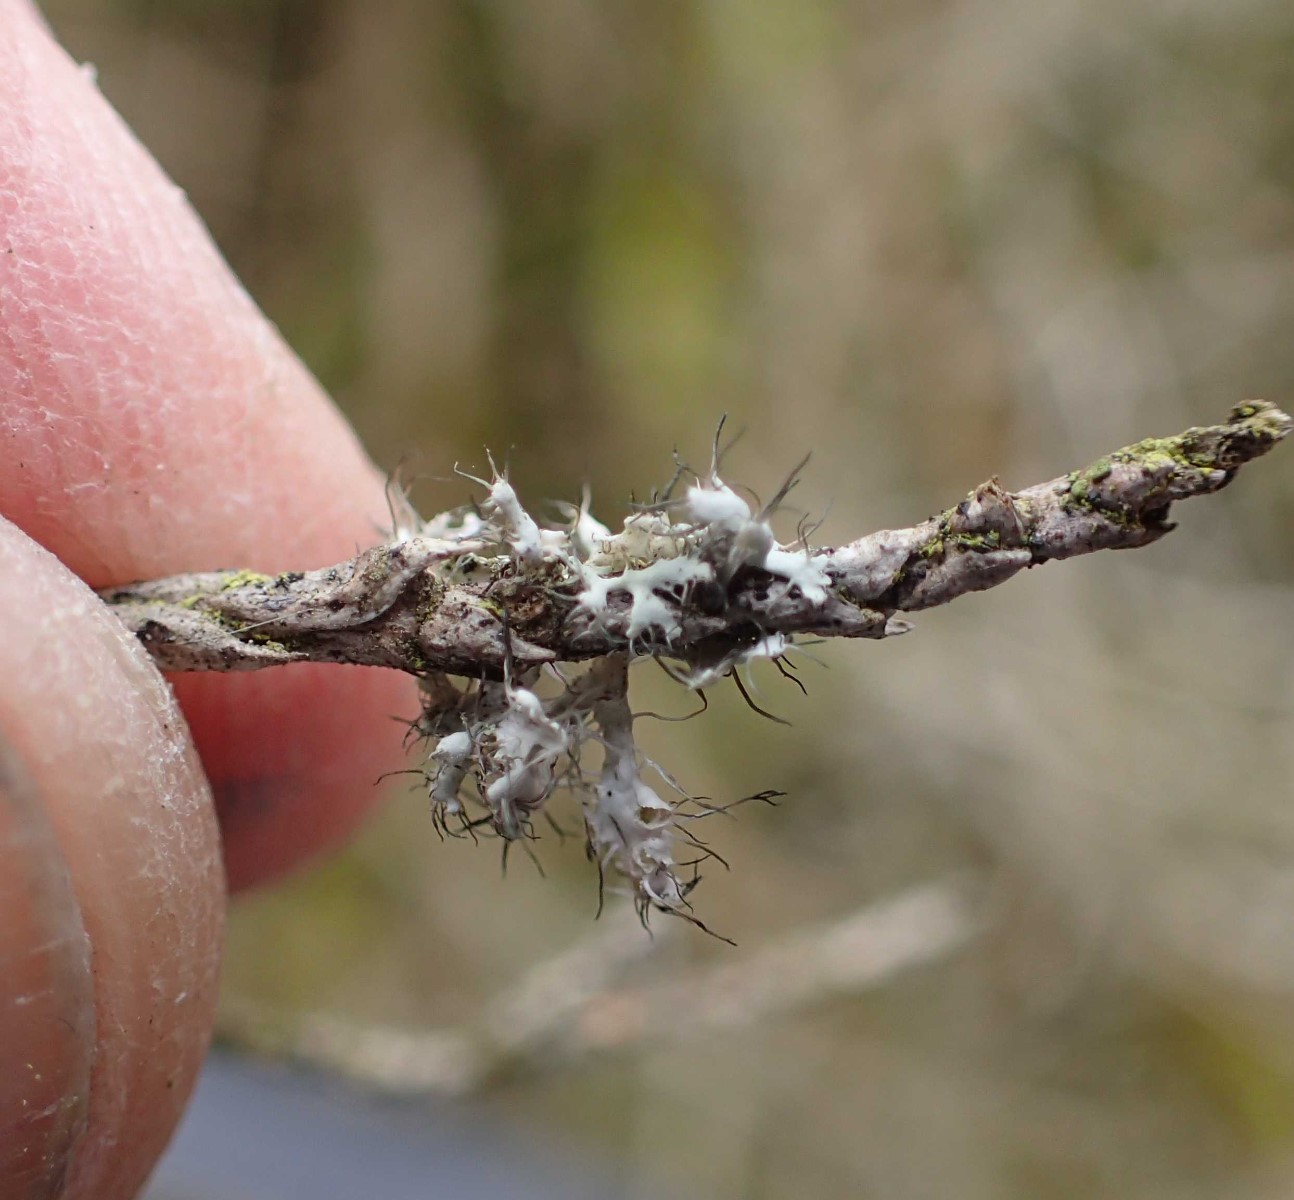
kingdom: Fungi
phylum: Ascomycota
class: Lecanoromycetes
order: Caliciales
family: Physciaceae
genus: Physcia
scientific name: Physcia adscendens
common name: hætte-rosetlav
